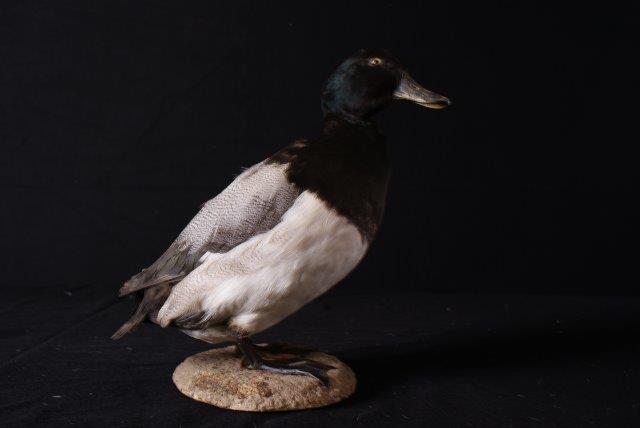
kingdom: Animalia
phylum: Chordata
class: Aves
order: Anseriformes
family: Anatidae
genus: Aythya
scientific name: Aythya marila
